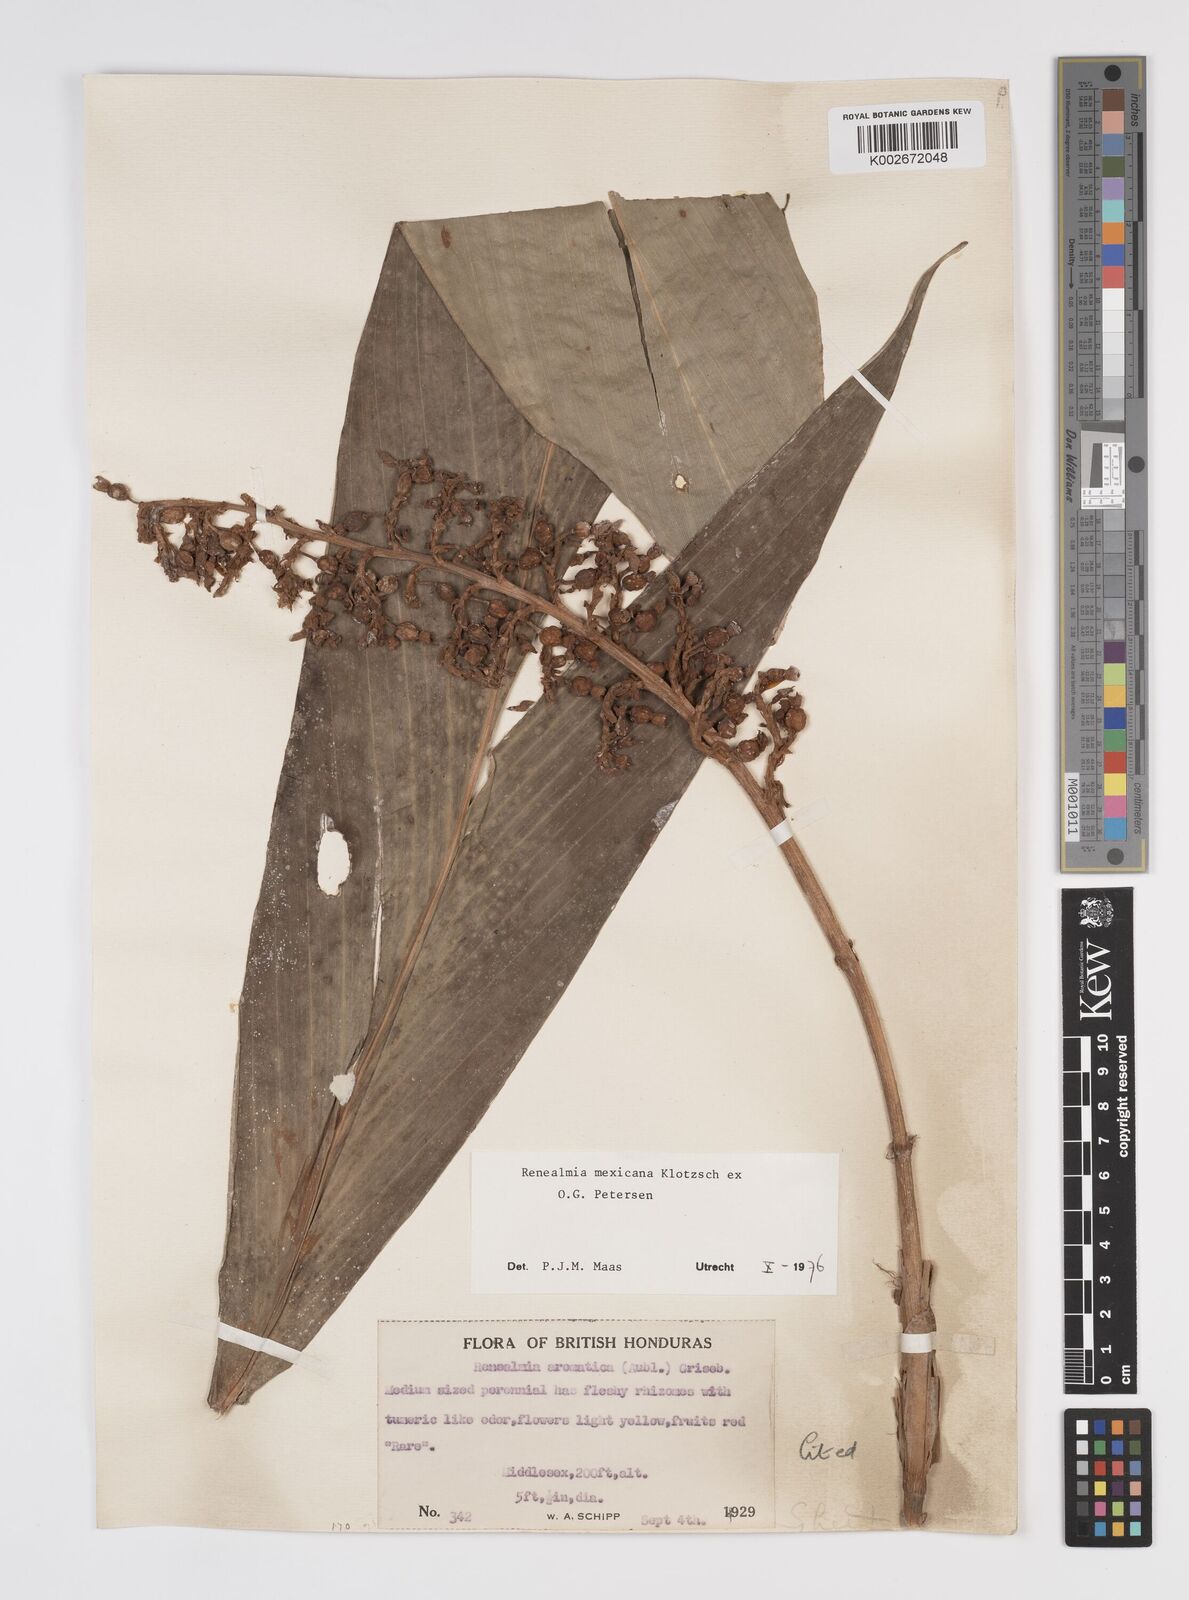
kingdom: Plantae
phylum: Tracheophyta
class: Liliopsida
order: Zingiberales
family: Zingiberaceae
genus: Renealmia
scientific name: Renealmia mexicana
